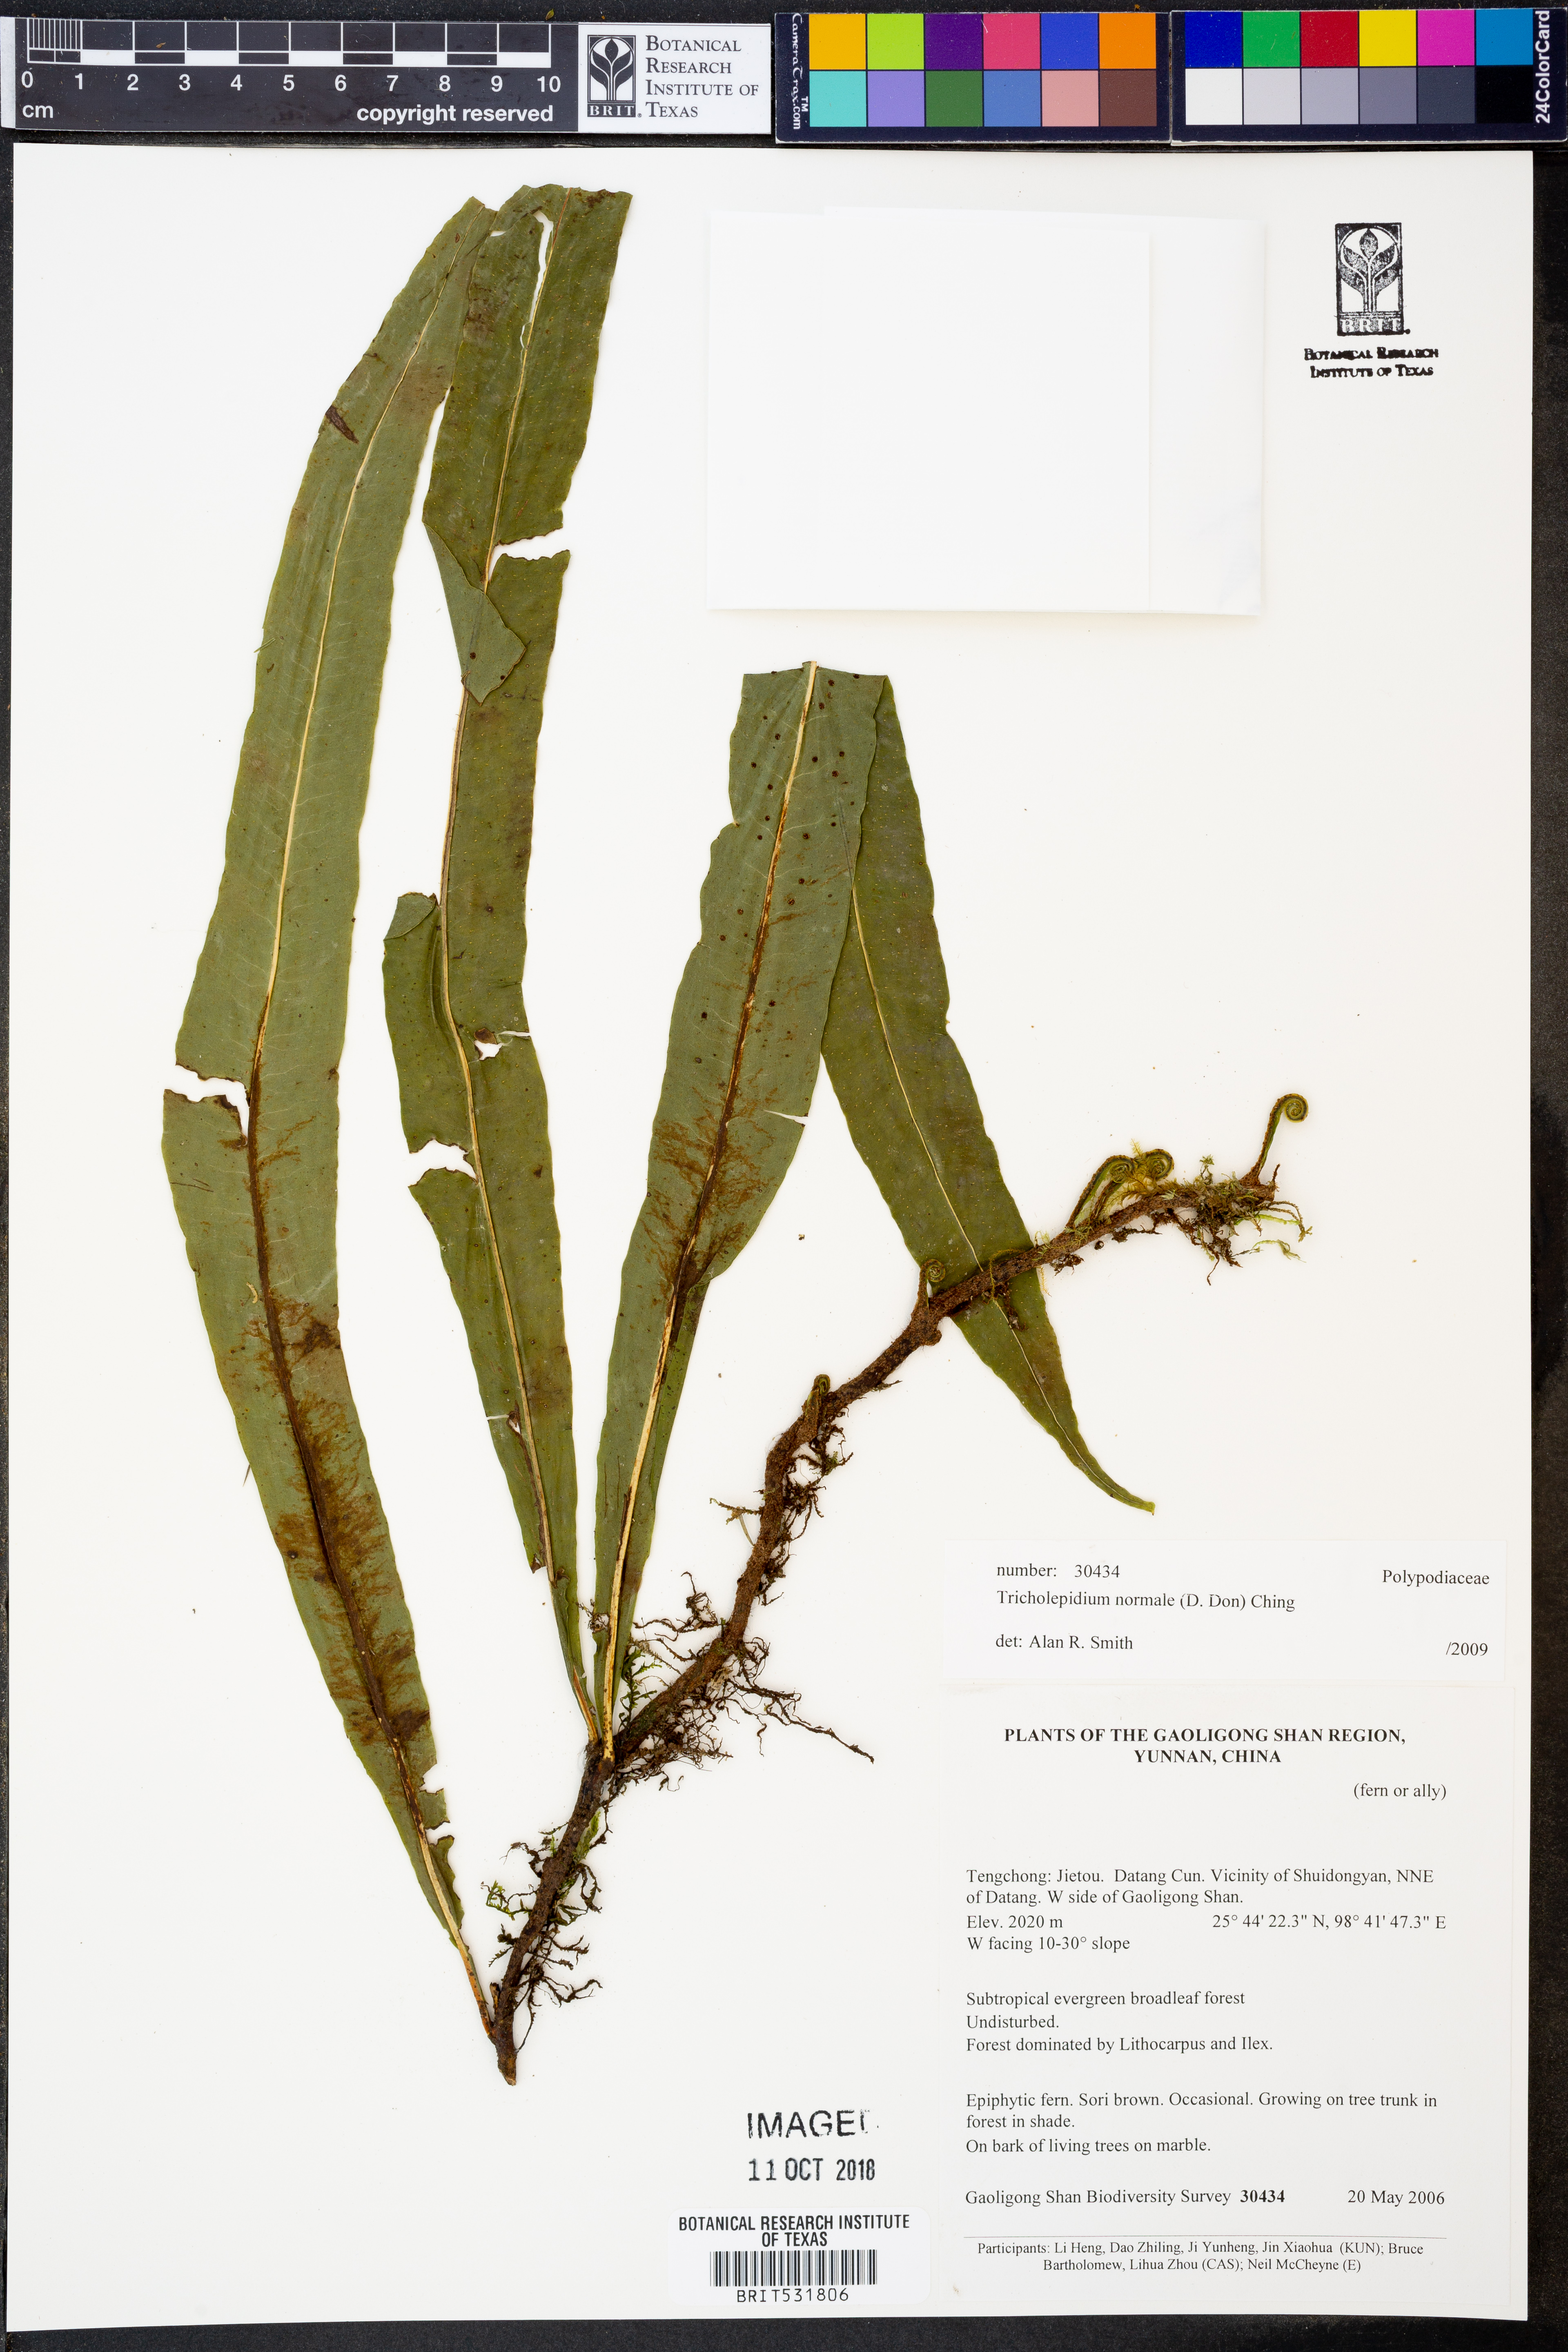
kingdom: Plantae
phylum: Tracheophyta
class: Polypodiopsida
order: Polypodiales
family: Polypodiaceae
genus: Lepisorus
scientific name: Lepisorus normalis
